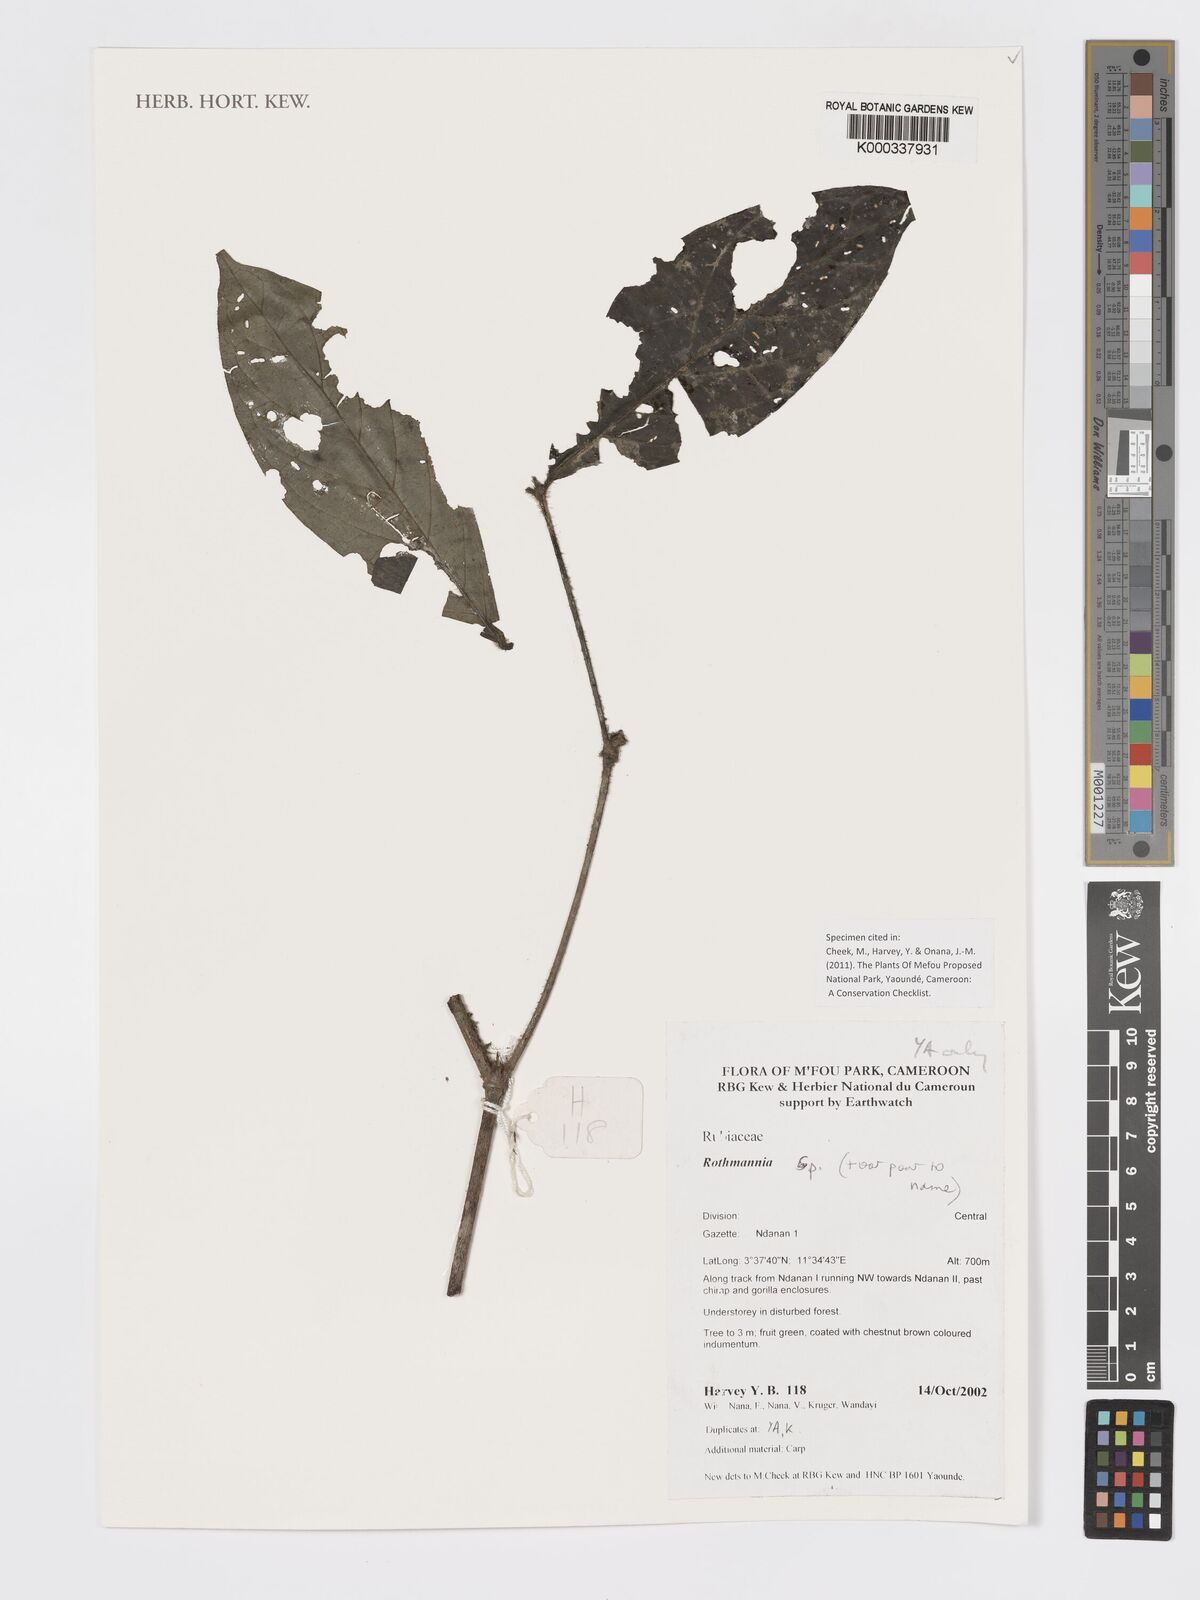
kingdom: Plantae
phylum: Tracheophyta
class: Magnoliopsida
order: Gentianales
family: Rubiaceae
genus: Rothmannia
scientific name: Rothmannia
